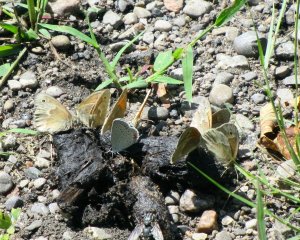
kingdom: Animalia
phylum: Arthropoda
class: Insecta
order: Lepidoptera
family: Nymphalidae
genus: Coenonympha
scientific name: Coenonympha tullia
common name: Large Heath
